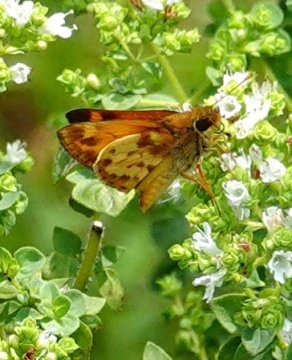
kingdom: Animalia
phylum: Arthropoda
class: Insecta
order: Lepidoptera
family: Hesperiidae
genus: Lon
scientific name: Lon zabulon
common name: Zabulon Skipper
